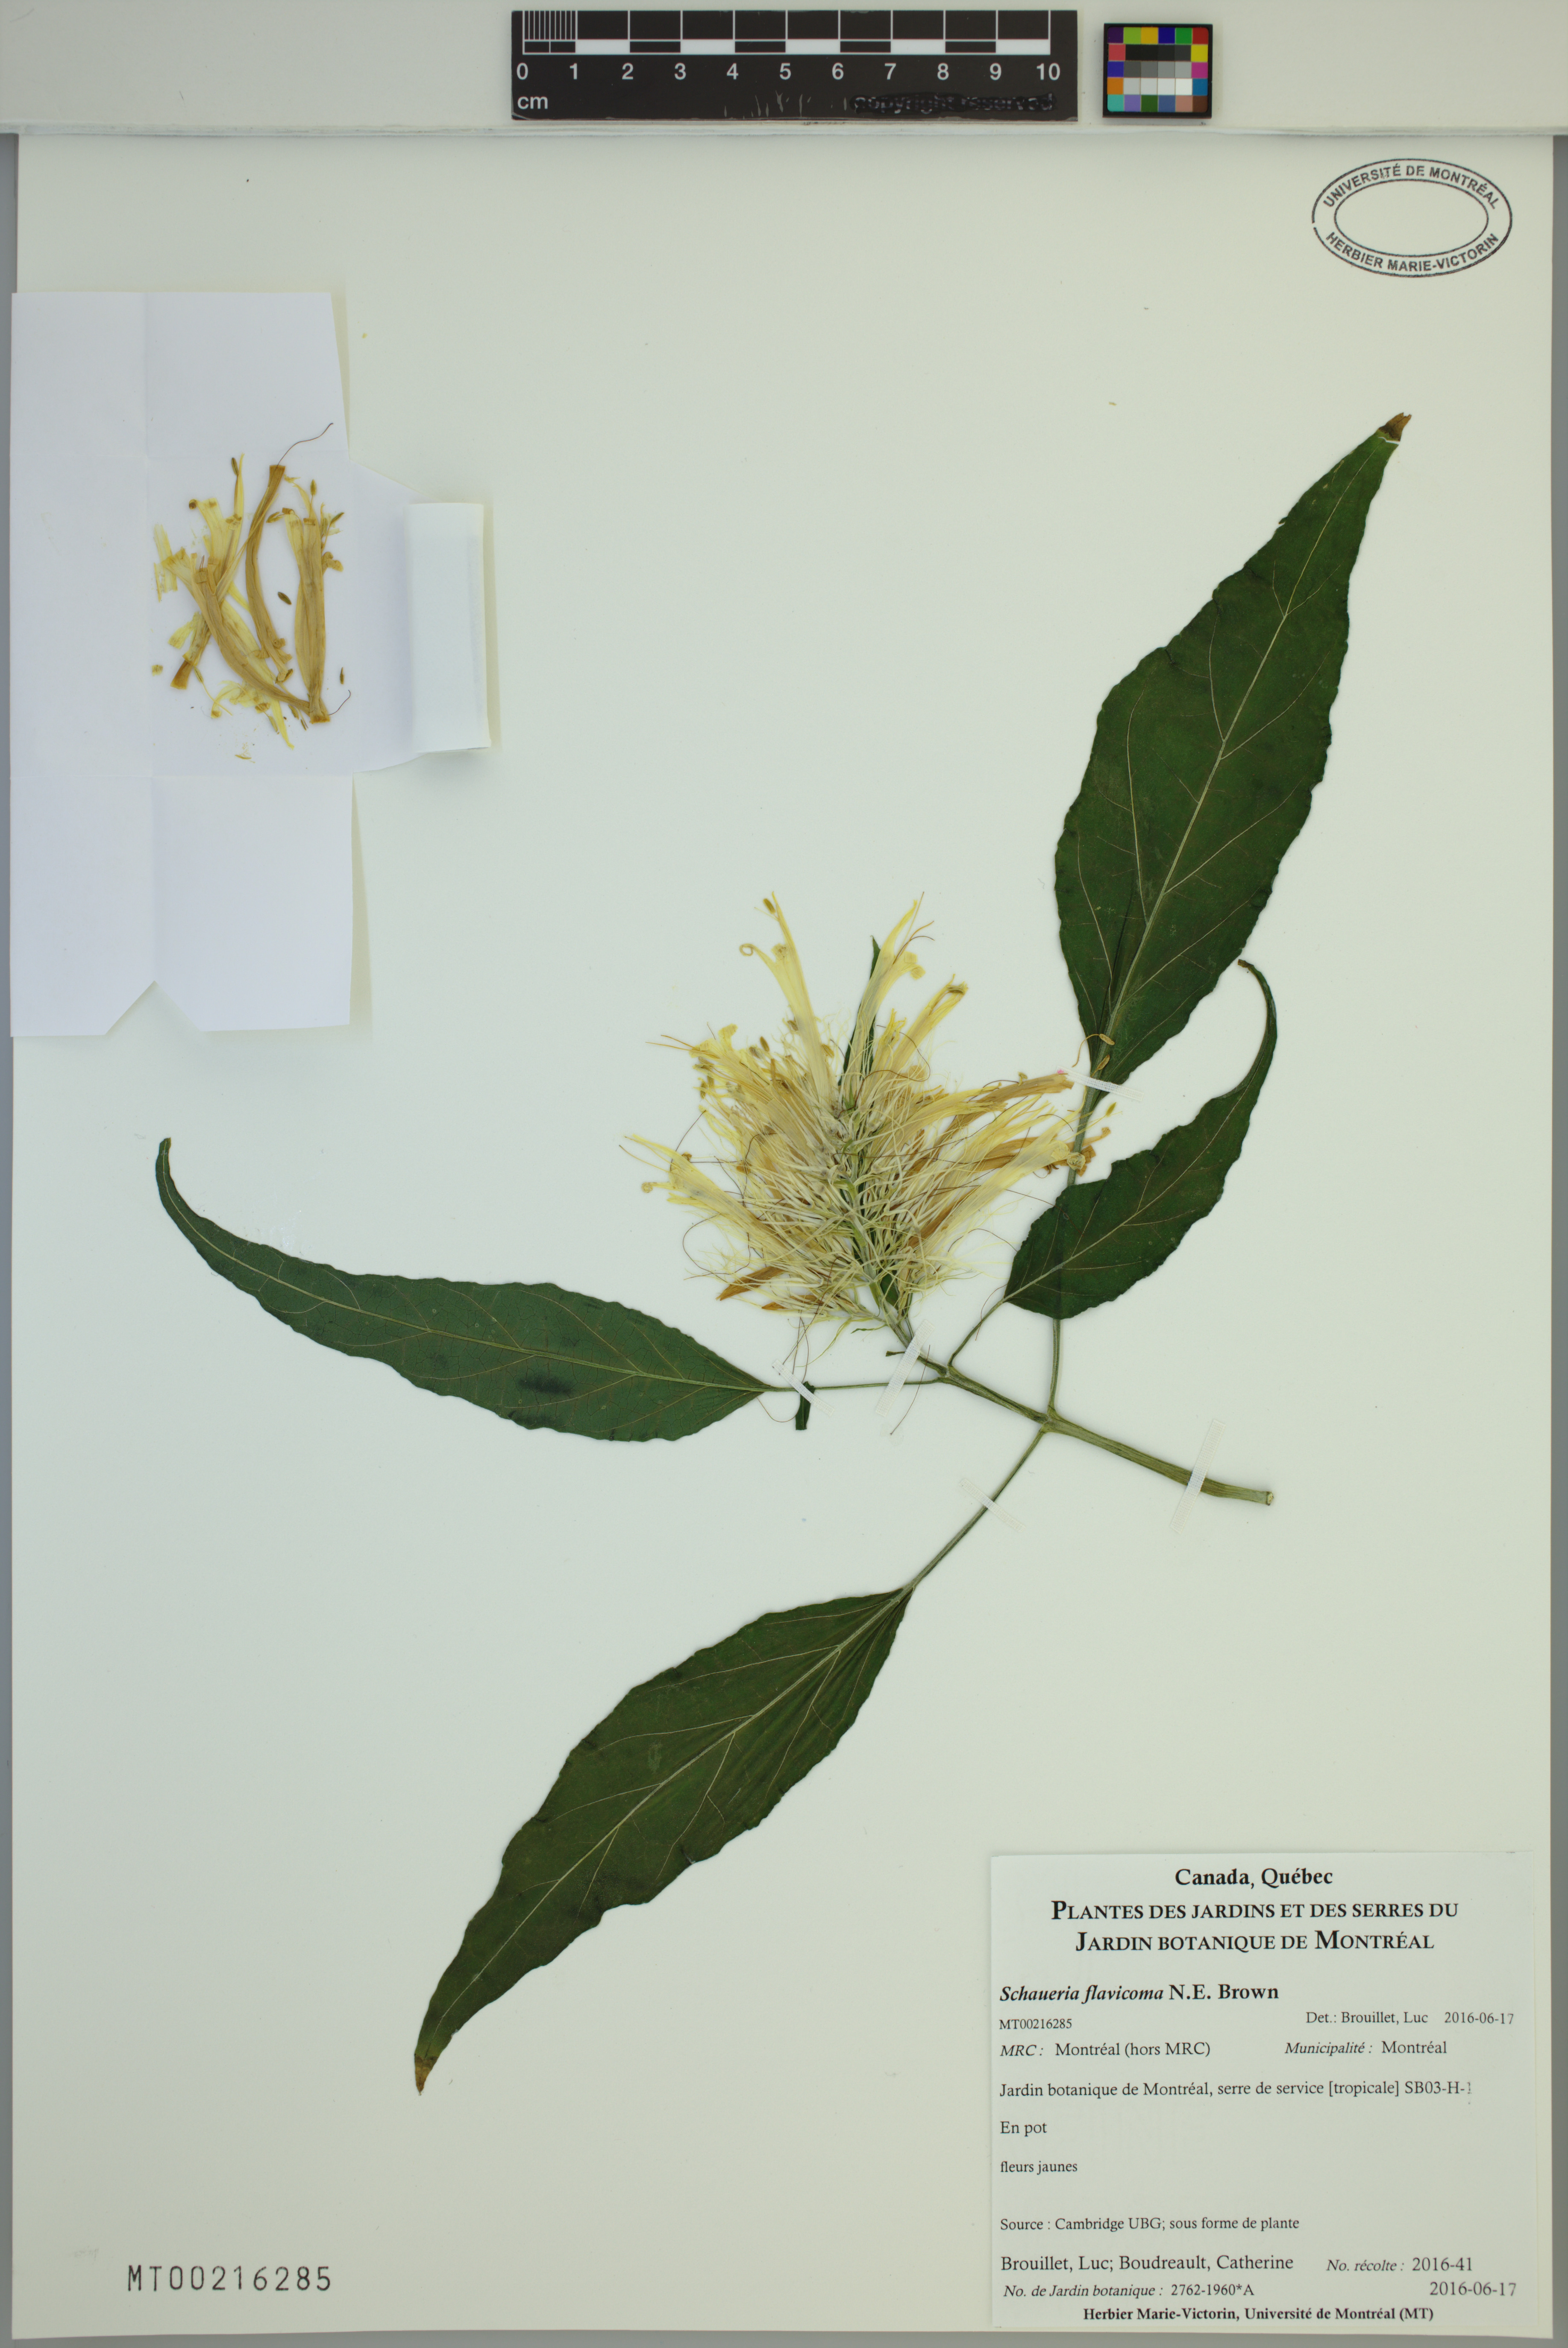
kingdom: Plantae
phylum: Tracheophyta
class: Magnoliopsida
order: Lamiales
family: Acanthaceae
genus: Schaueria
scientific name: Schaueria calytricha
